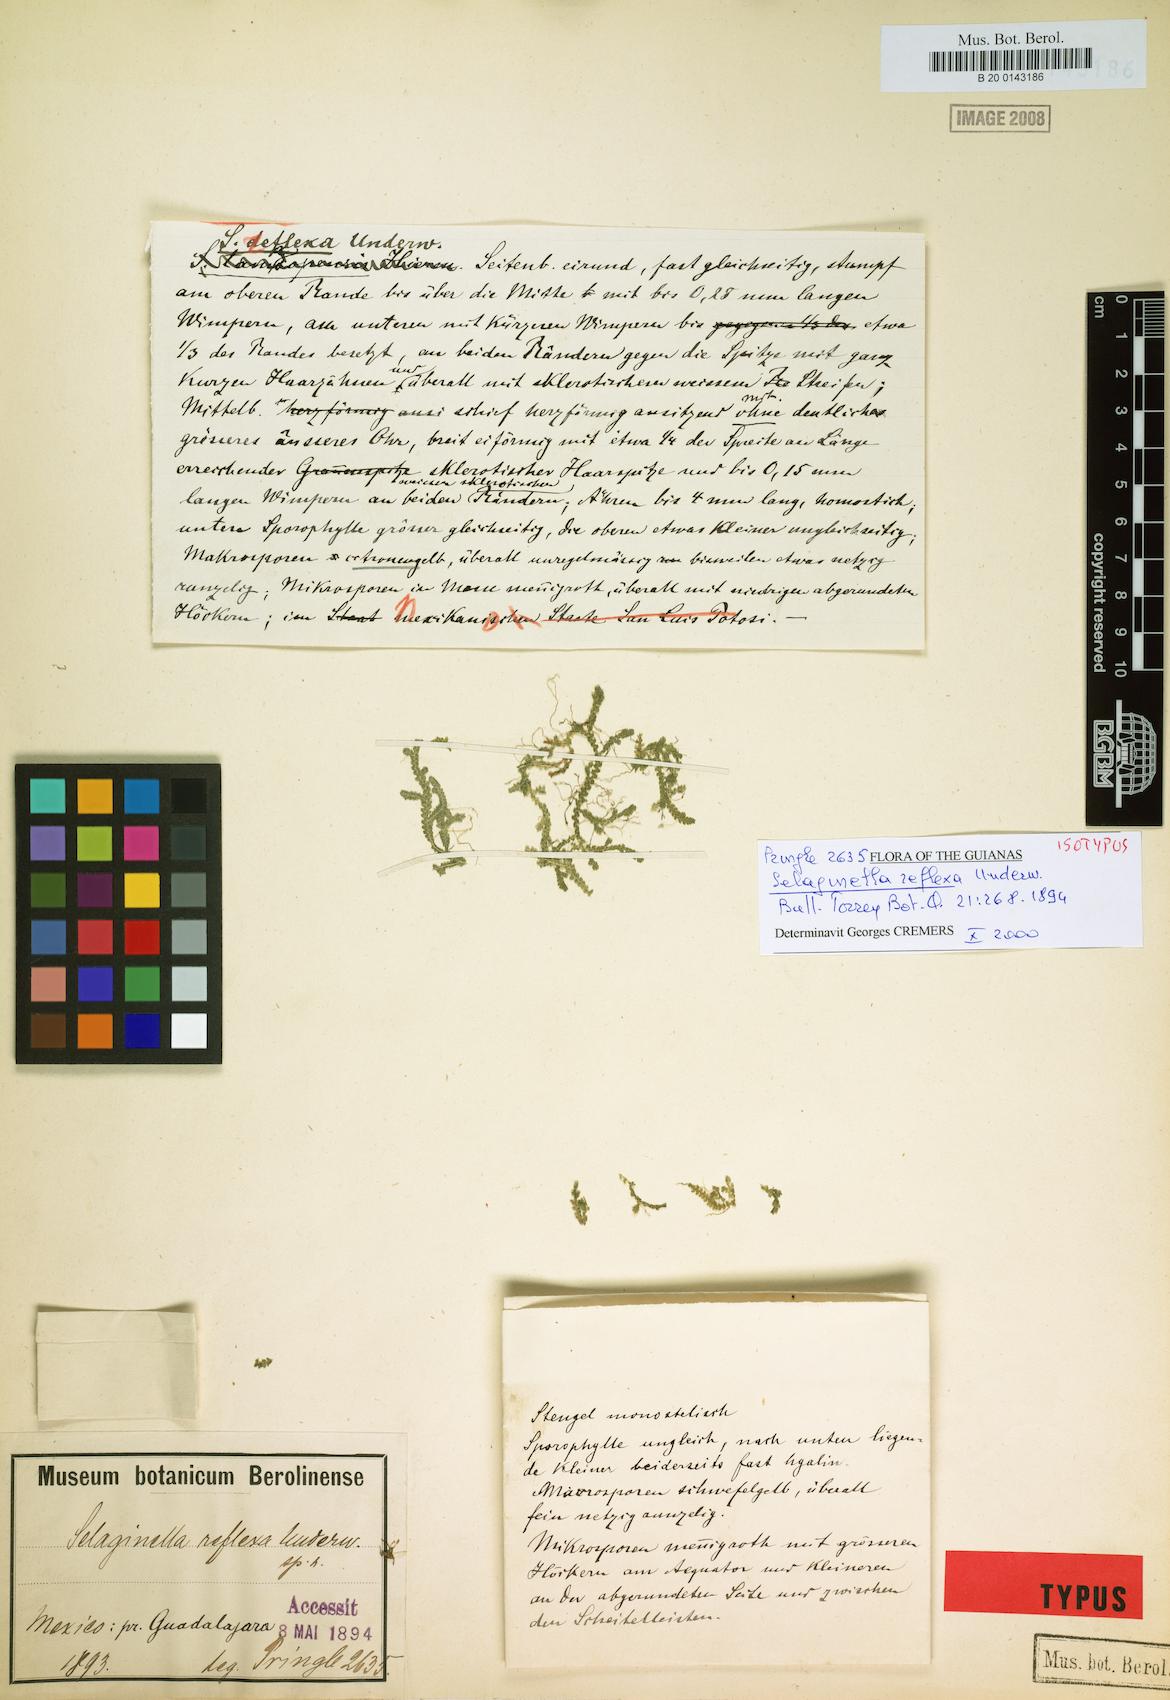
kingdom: Plantae
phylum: Tracheophyta
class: Lycopodiopsida
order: Selaginellales
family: Selaginellaceae
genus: Selaginella
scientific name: Selaginella reflexa
